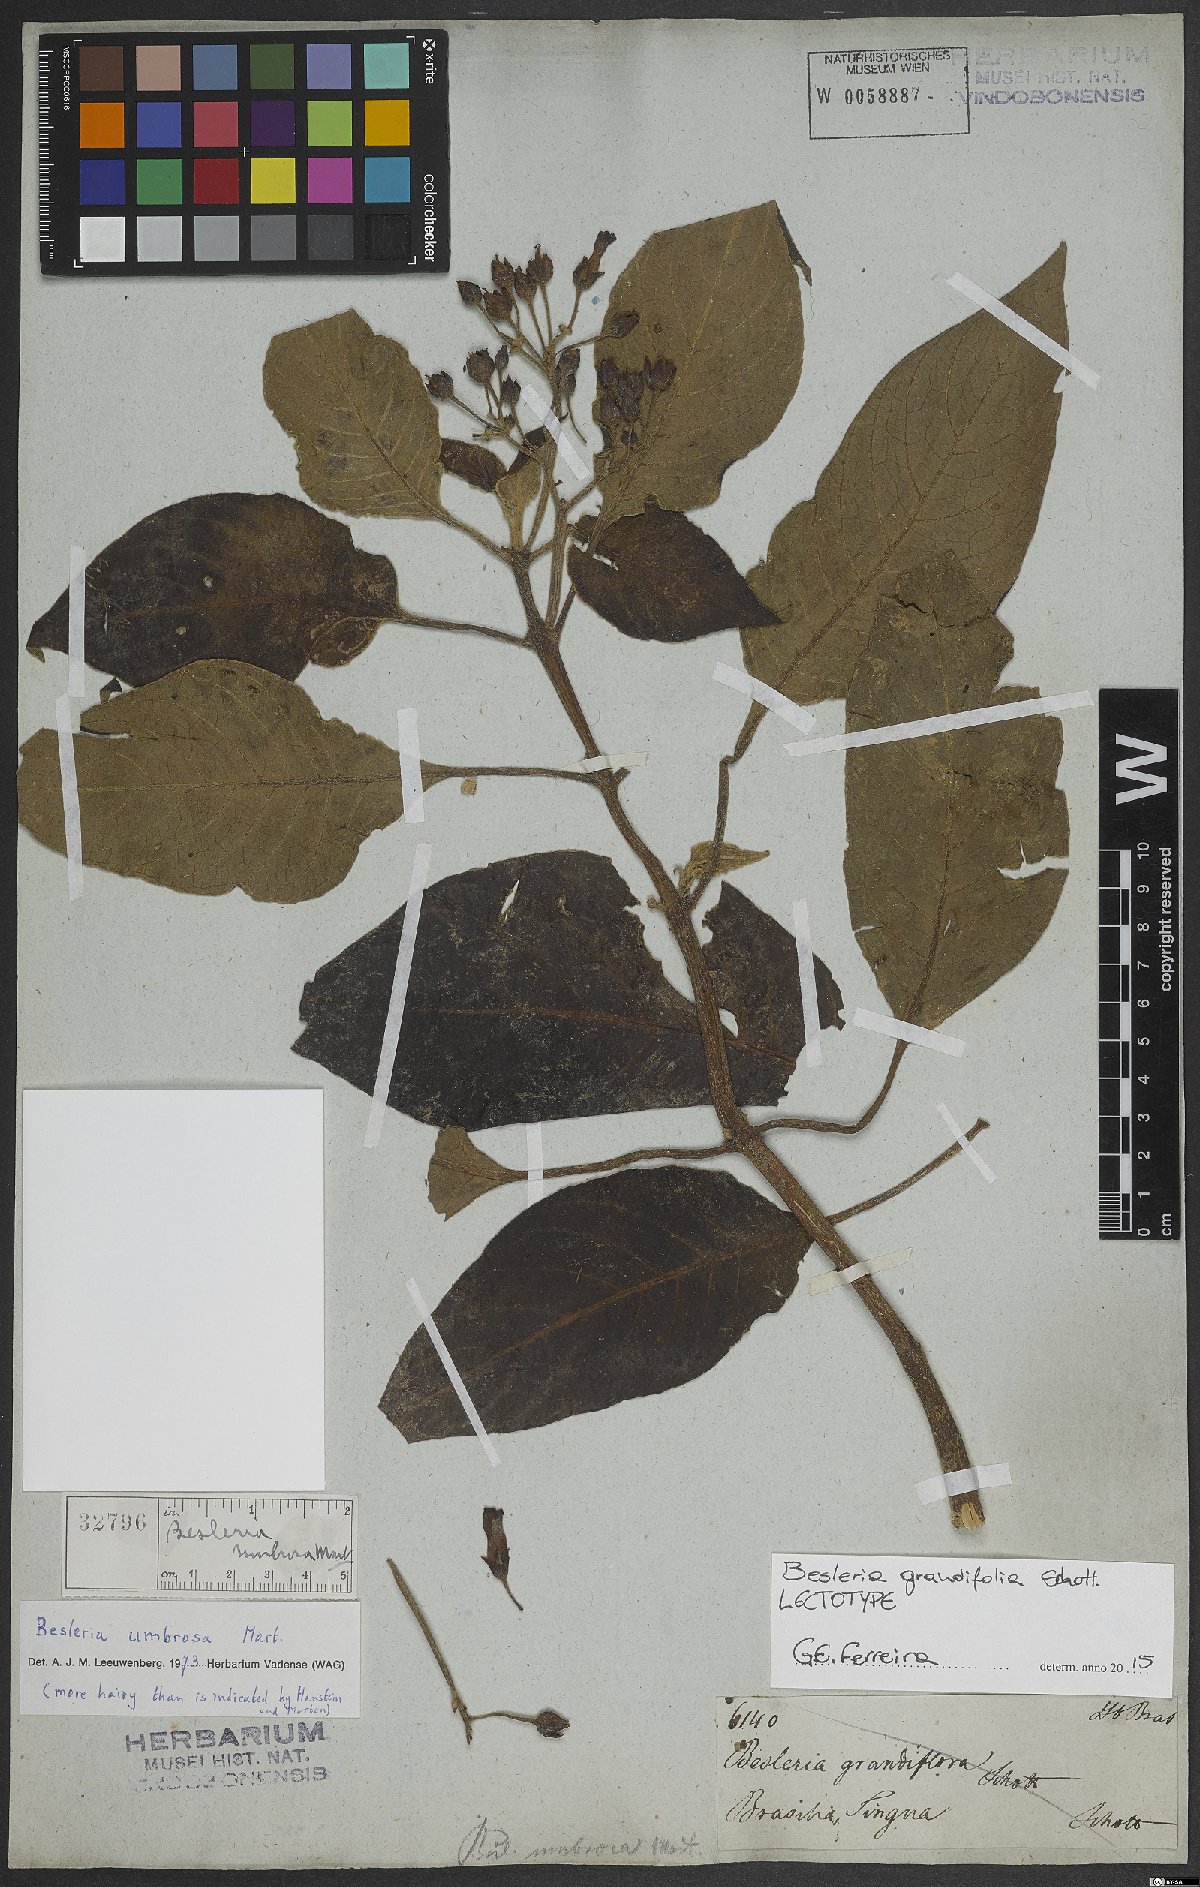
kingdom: Plantae
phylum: Tracheophyta
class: Magnoliopsida
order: Lamiales
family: Gesneriaceae
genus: Besleria
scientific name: Besleria grandifolia
